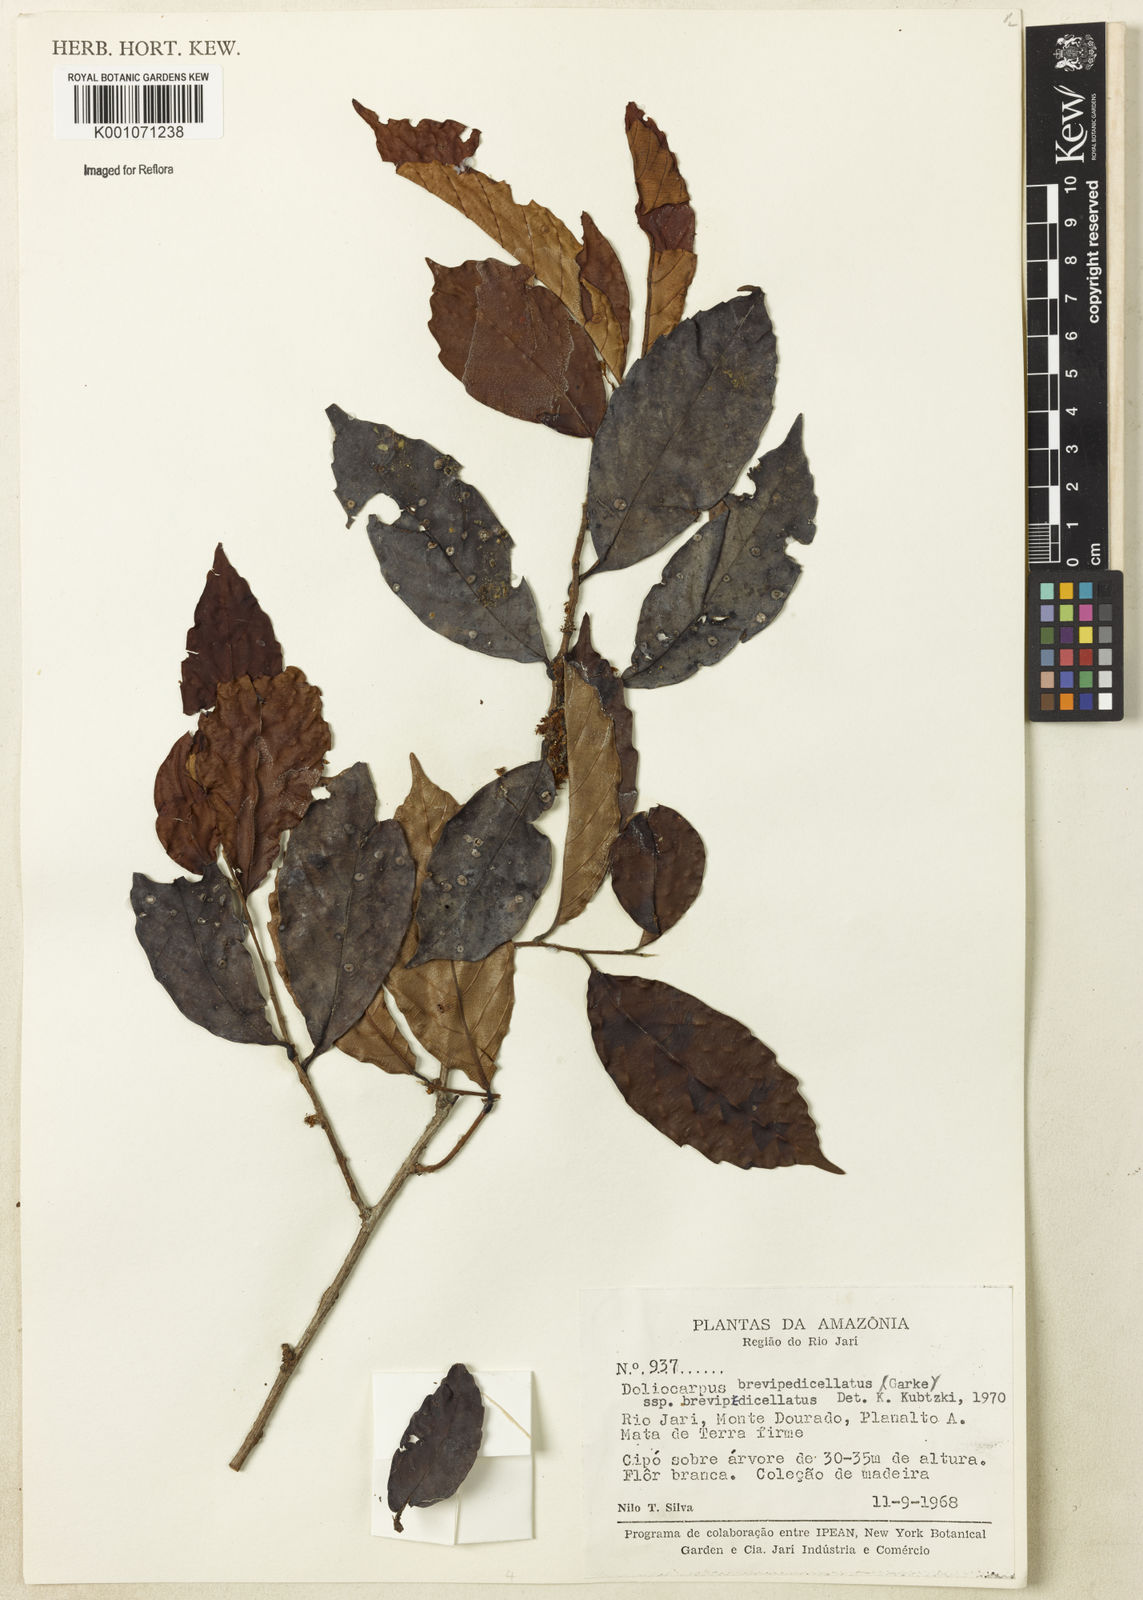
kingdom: Plantae
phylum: Tracheophyta
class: Magnoliopsida
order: Dilleniales
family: Dilleniaceae
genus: Doliocarpus
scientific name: Doliocarpus brevipedicellatus
